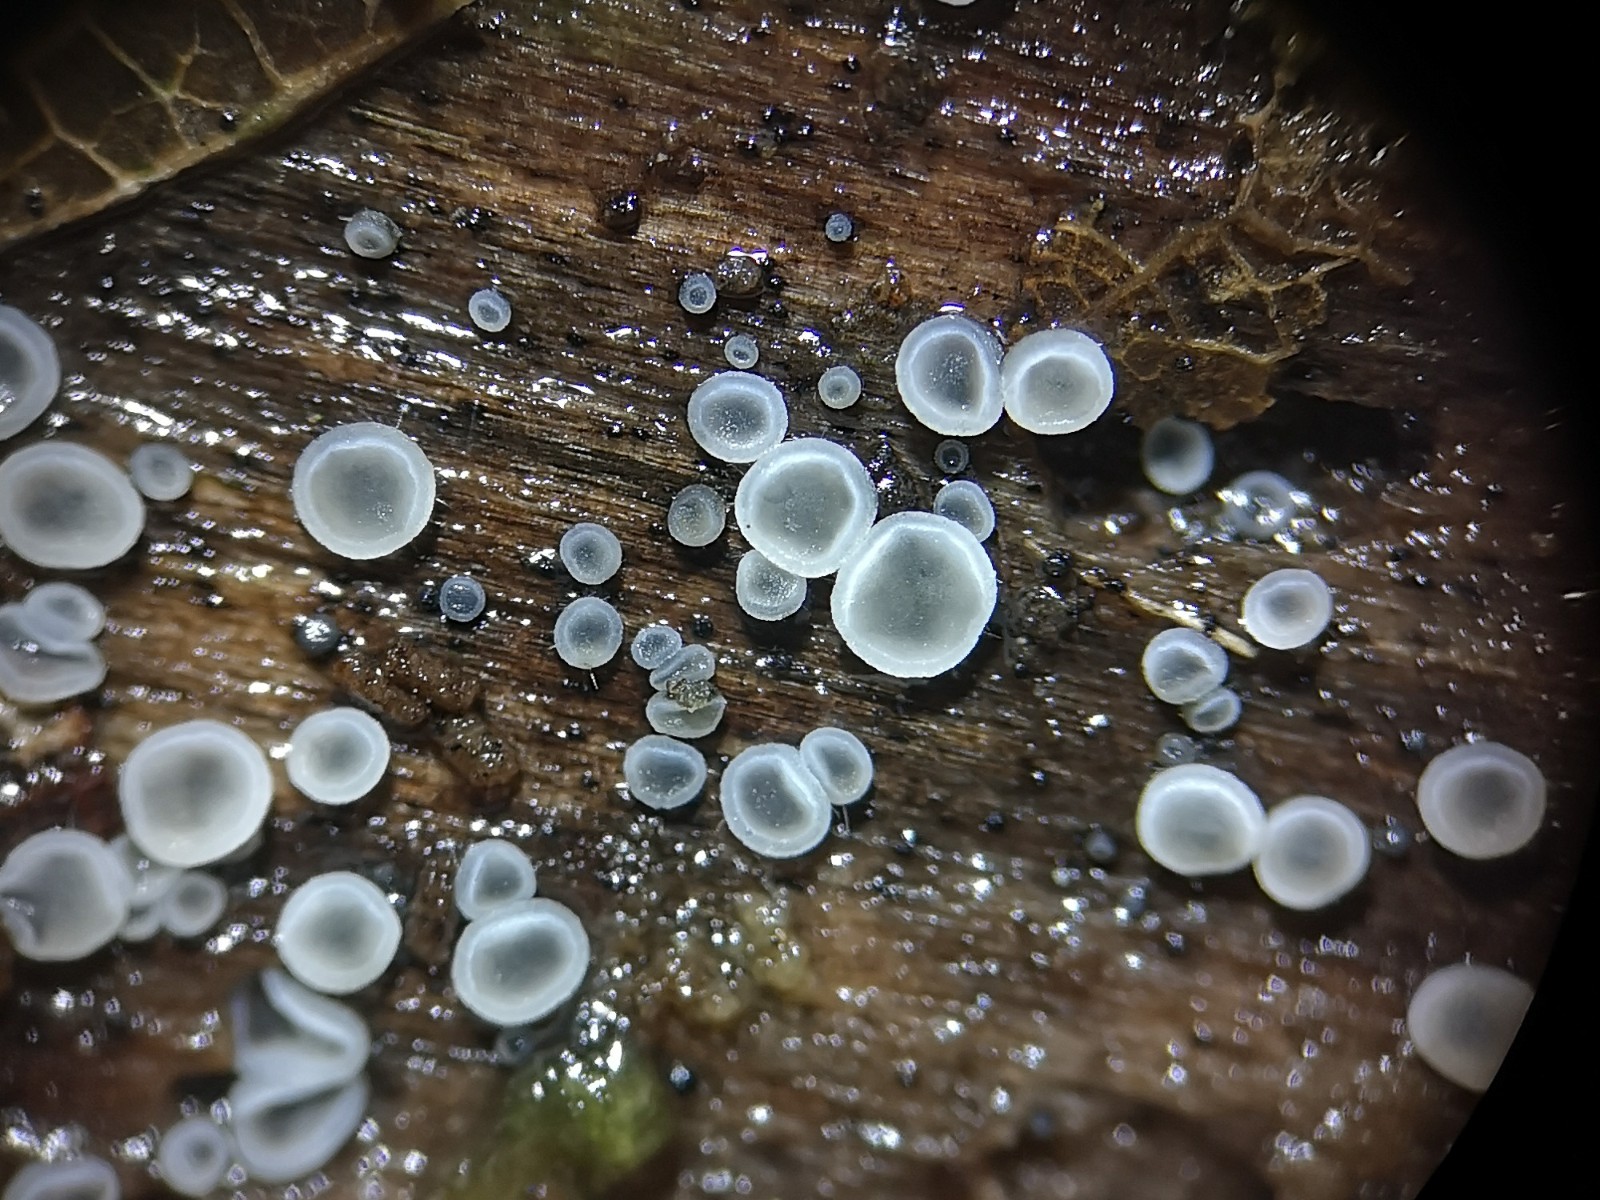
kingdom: Fungi
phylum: Ascomycota
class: Leotiomycetes
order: Helotiales
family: Mollisiaceae
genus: Mollisia
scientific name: Mollisia cinerea
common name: almindelig gråskive
